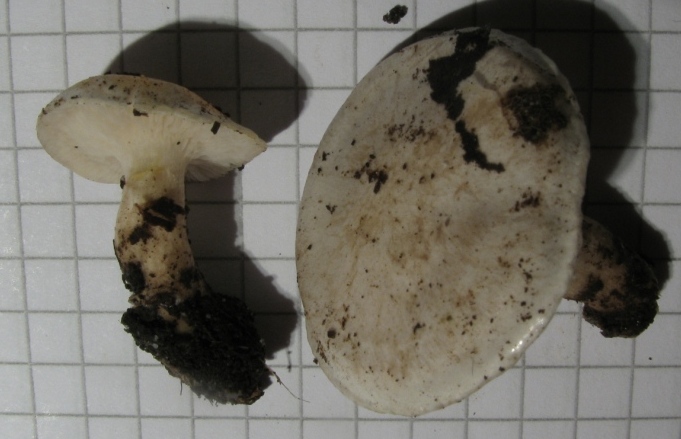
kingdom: Fungi
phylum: Basidiomycota
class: Agaricomycetes
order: Agaricales
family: Tricholomataceae
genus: Clitocybe
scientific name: Clitocybe phyllophila
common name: løv-tragthat
